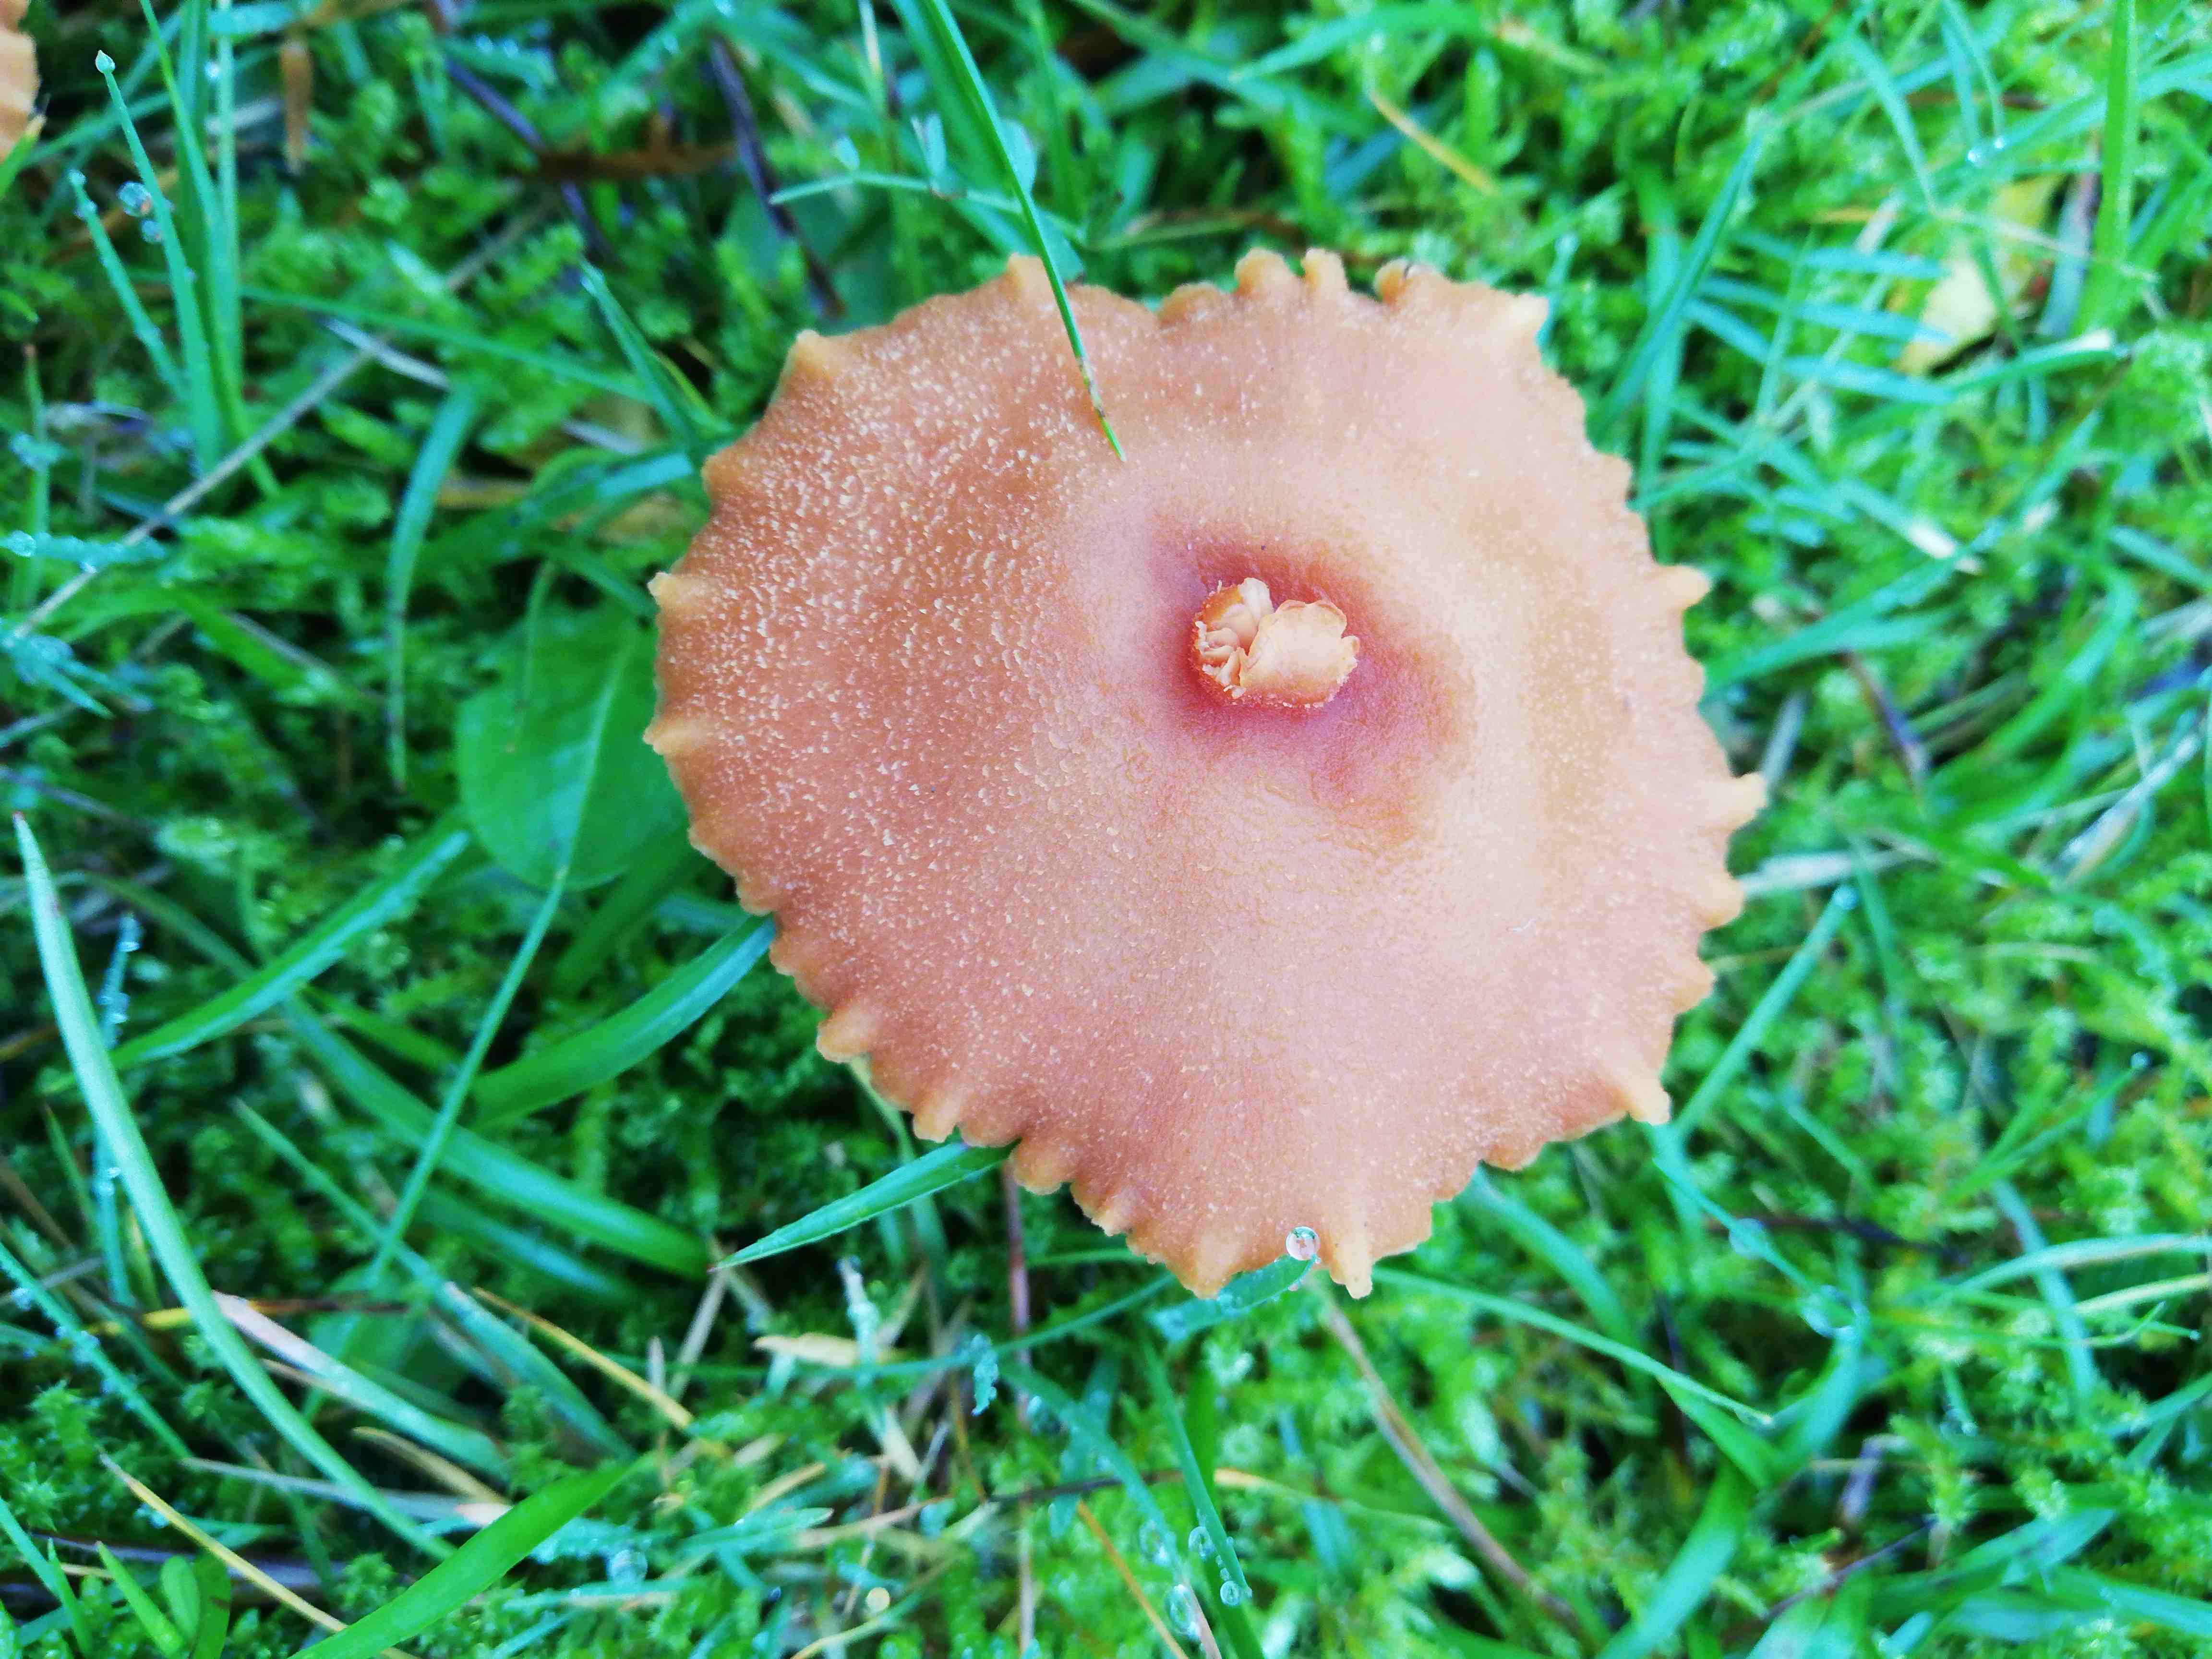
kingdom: Fungi
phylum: Basidiomycota
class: Agaricomycetes
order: Agaricales
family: Hydnangiaceae
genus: Laccaria
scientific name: Laccaria
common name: ametysthat
